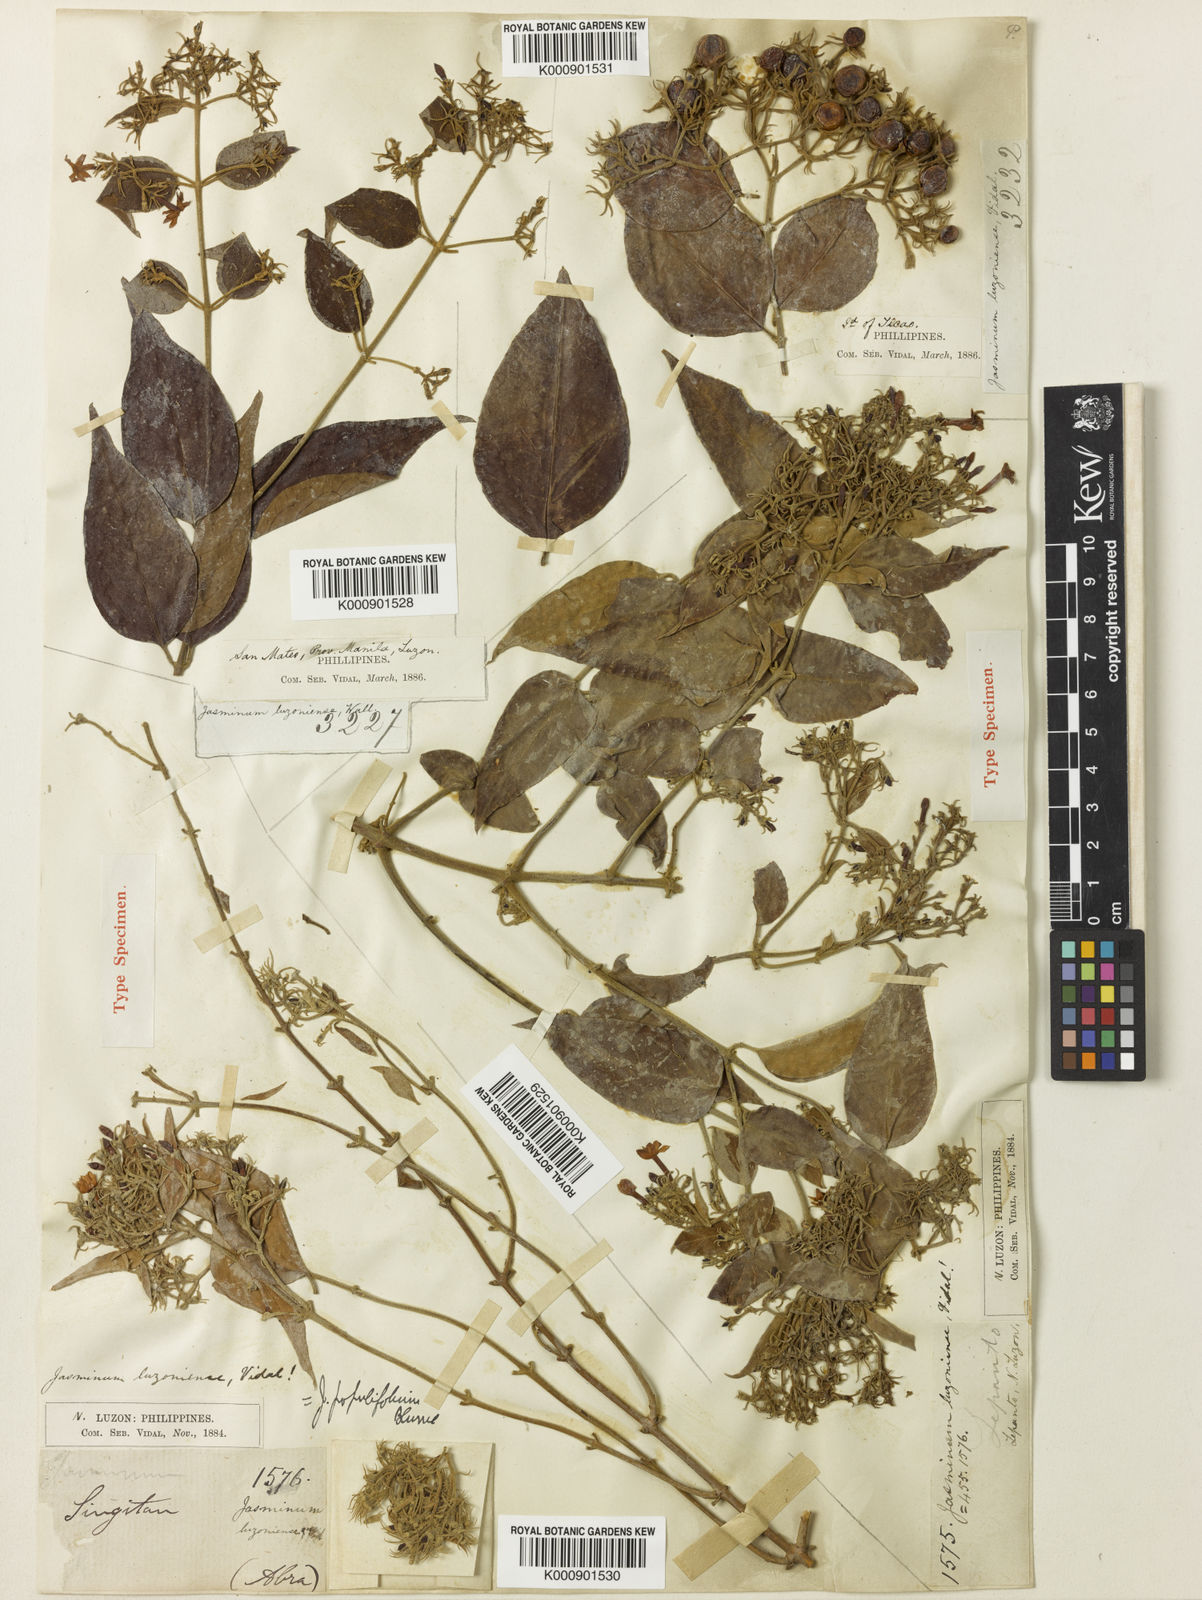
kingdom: Plantae
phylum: Tracheophyta
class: Magnoliopsida
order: Lamiales
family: Oleaceae
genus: Jasminum
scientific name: Jasminum populifolium
